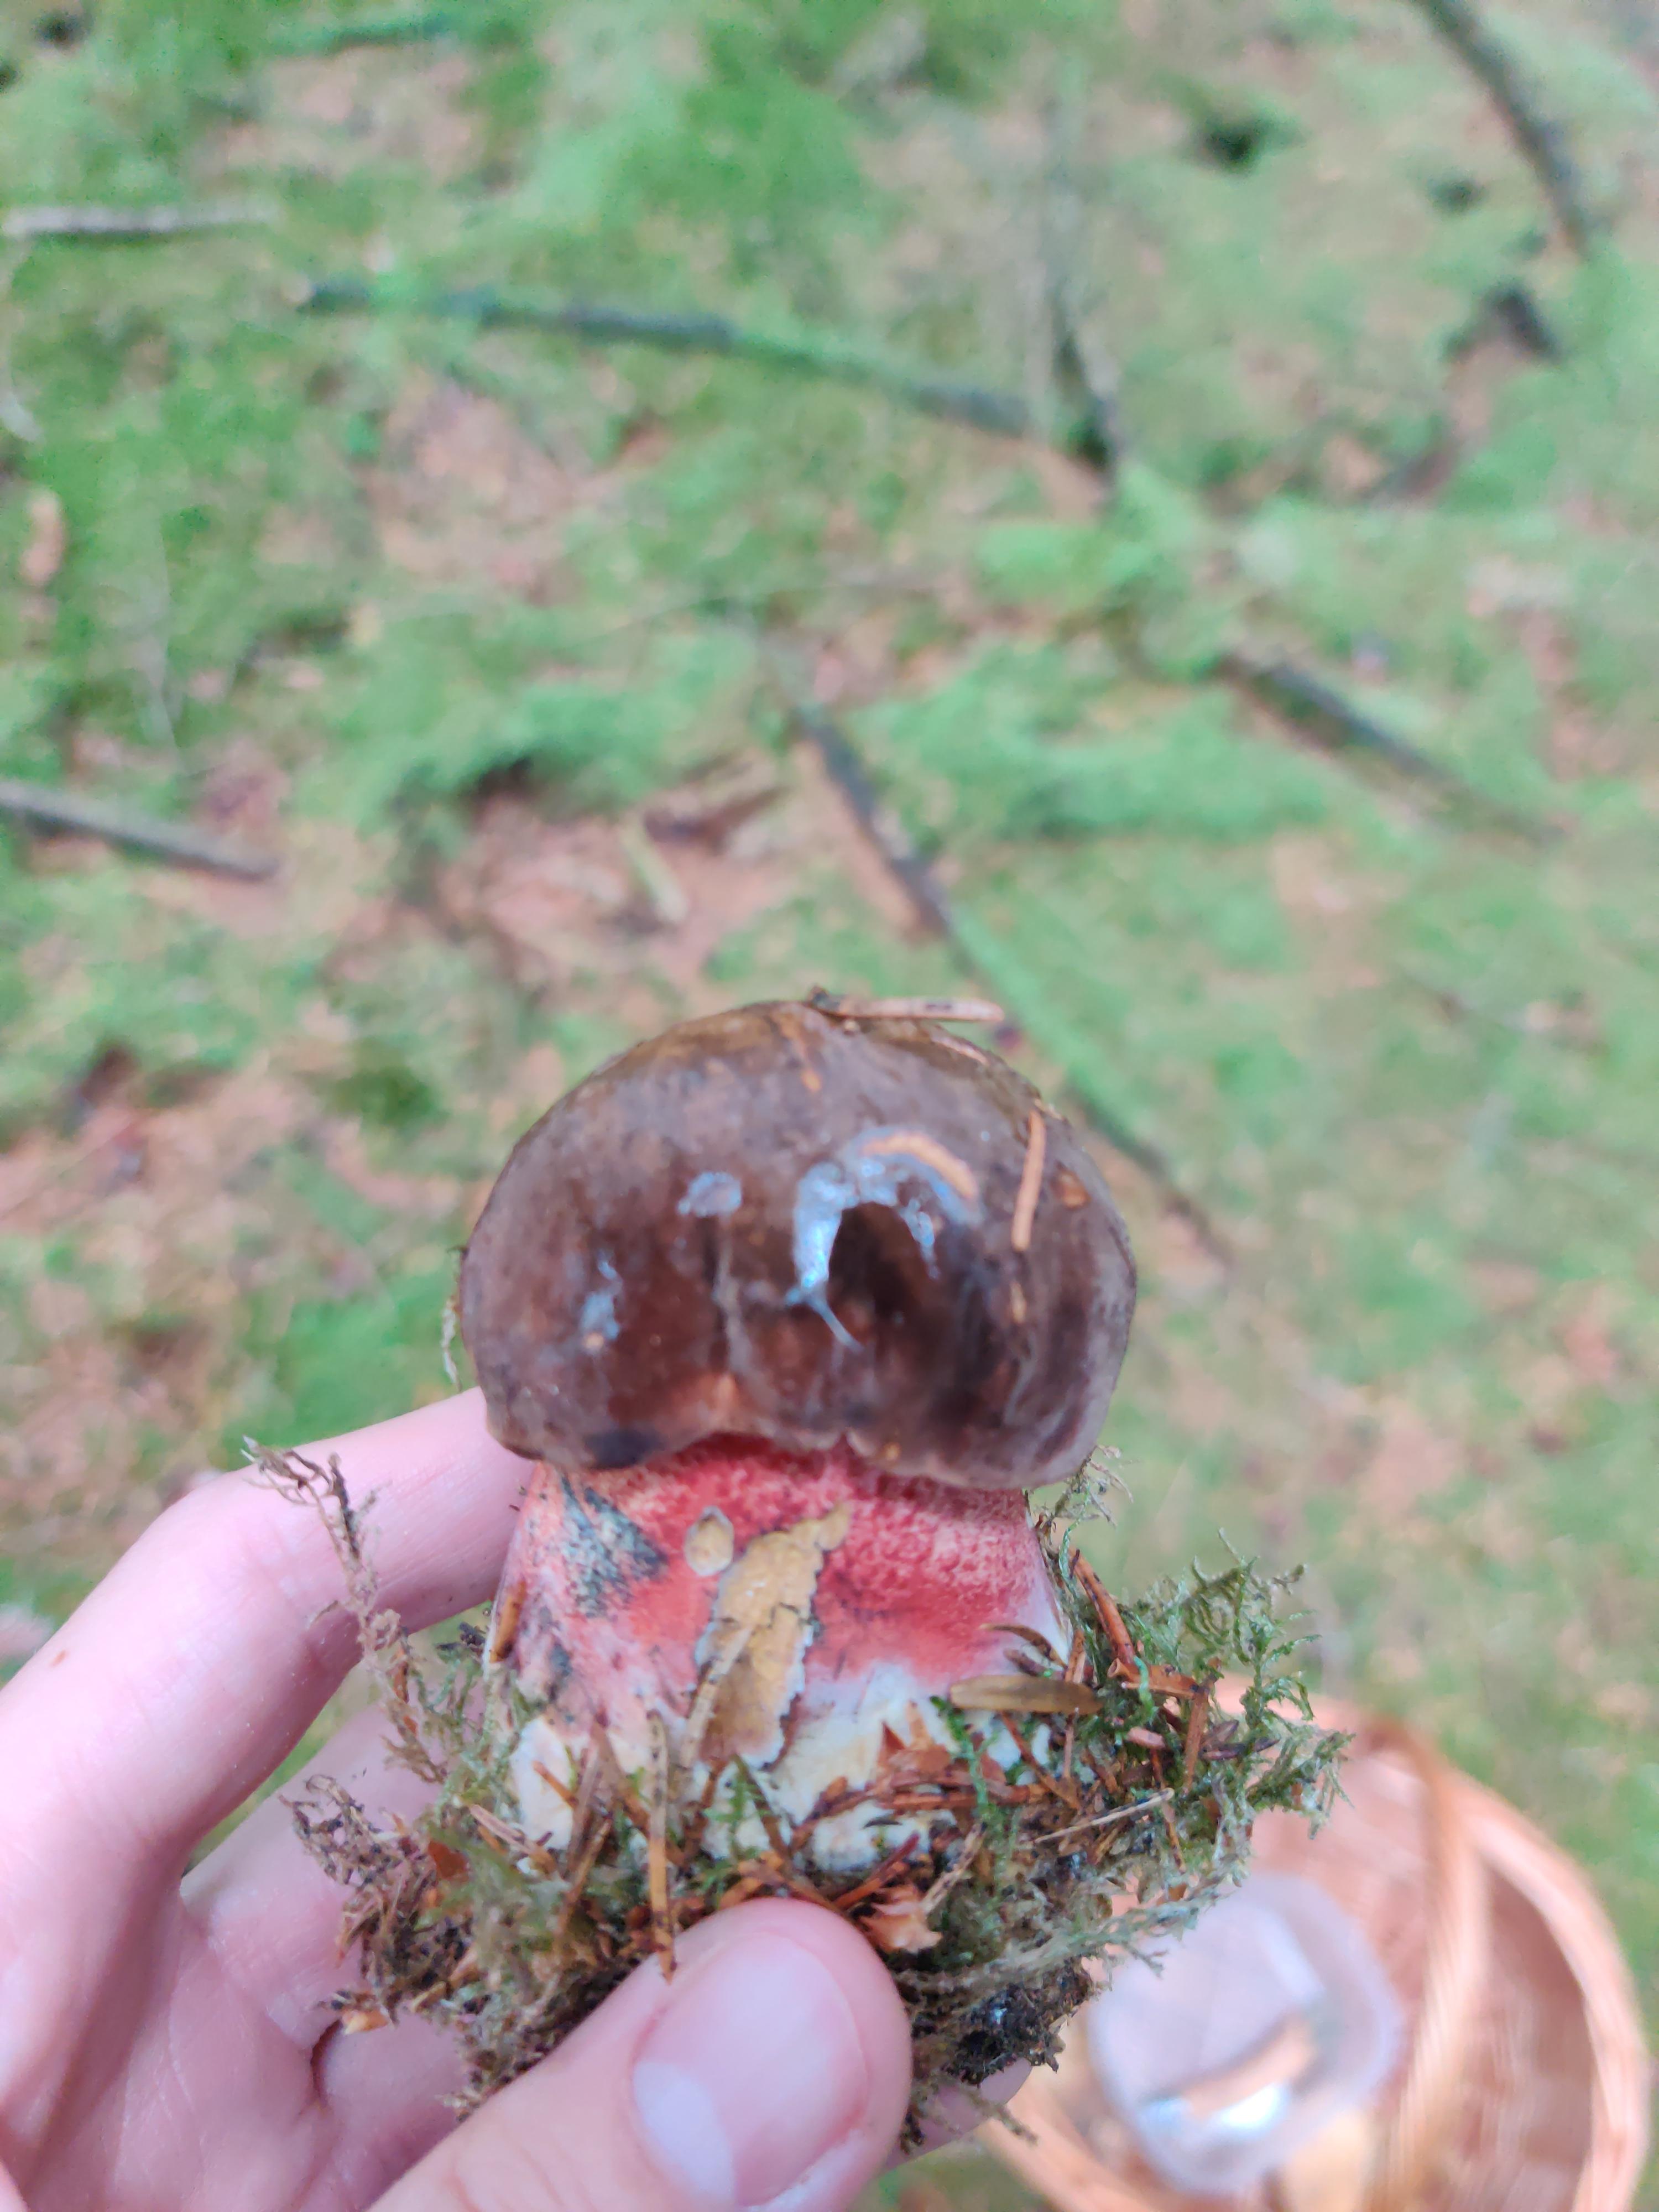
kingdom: Fungi
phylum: Basidiomycota
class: Agaricomycetes
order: Boletales
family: Boletaceae
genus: Neoboletus
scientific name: Neoboletus erythropus
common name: punktstokket indigorørhat
